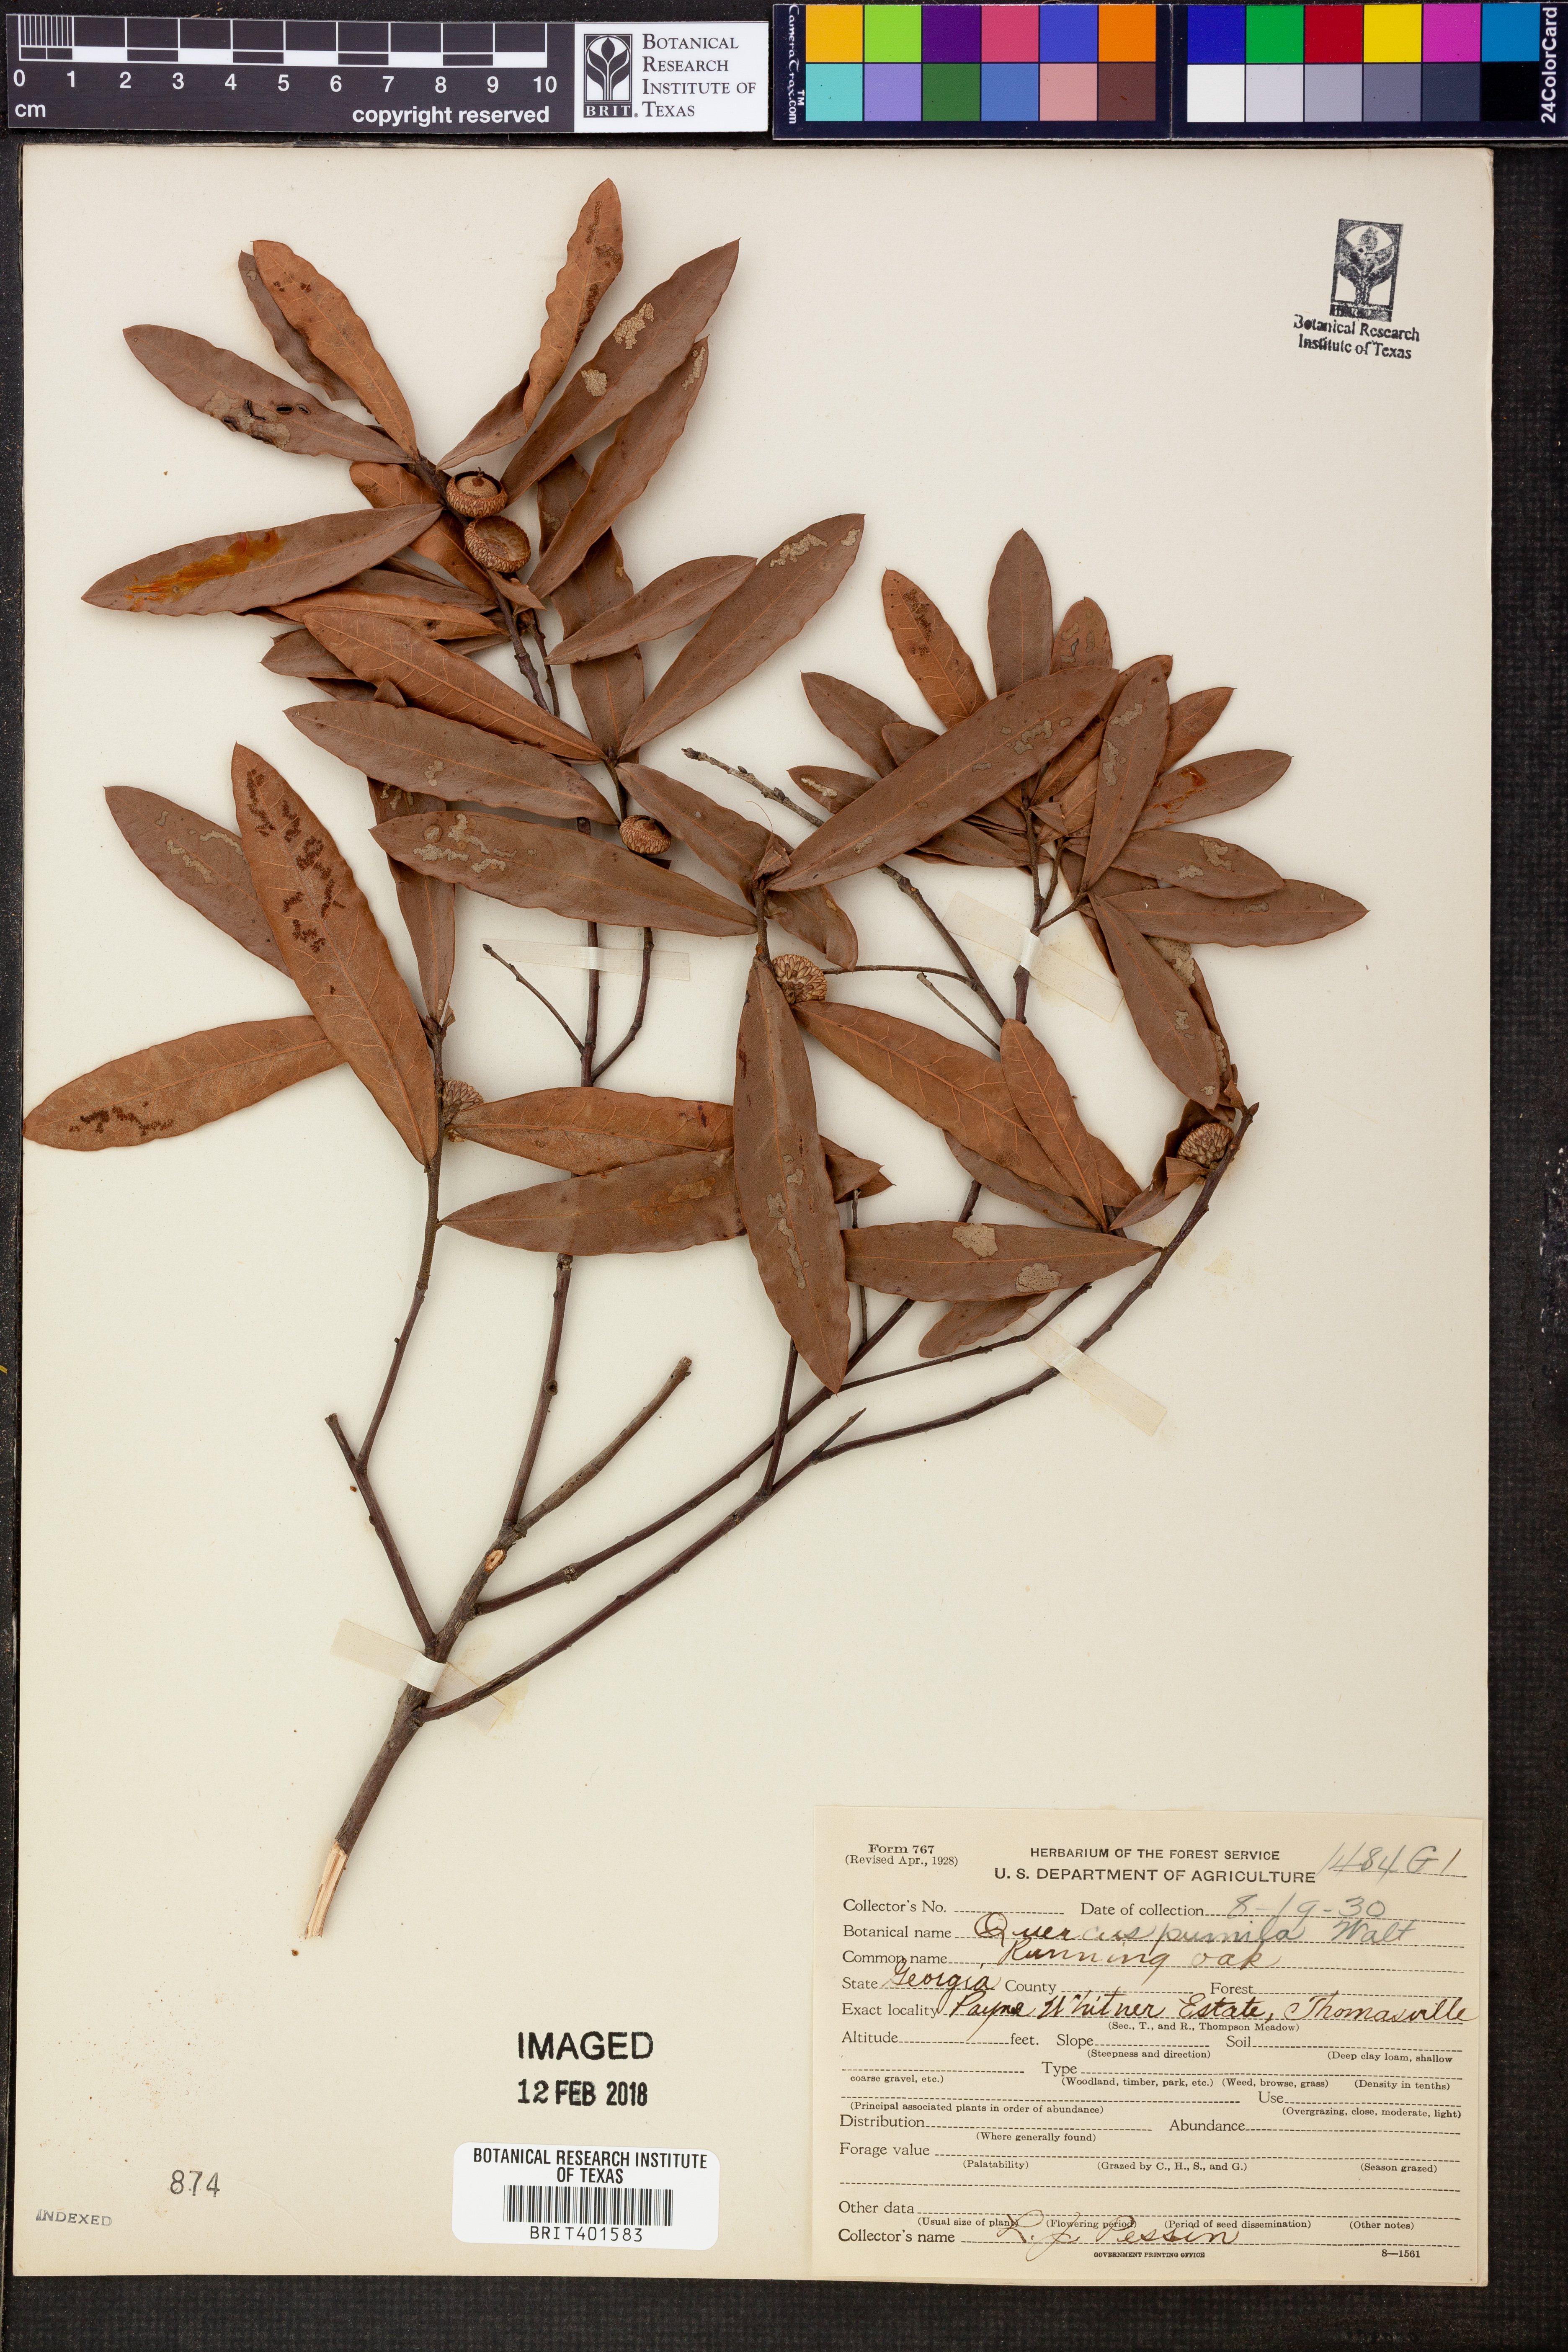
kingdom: Plantae
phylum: Tracheophyta
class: Magnoliopsida
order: Fagales
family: Fagaceae
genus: Quercus
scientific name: Quercus pumila
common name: Runner oak
